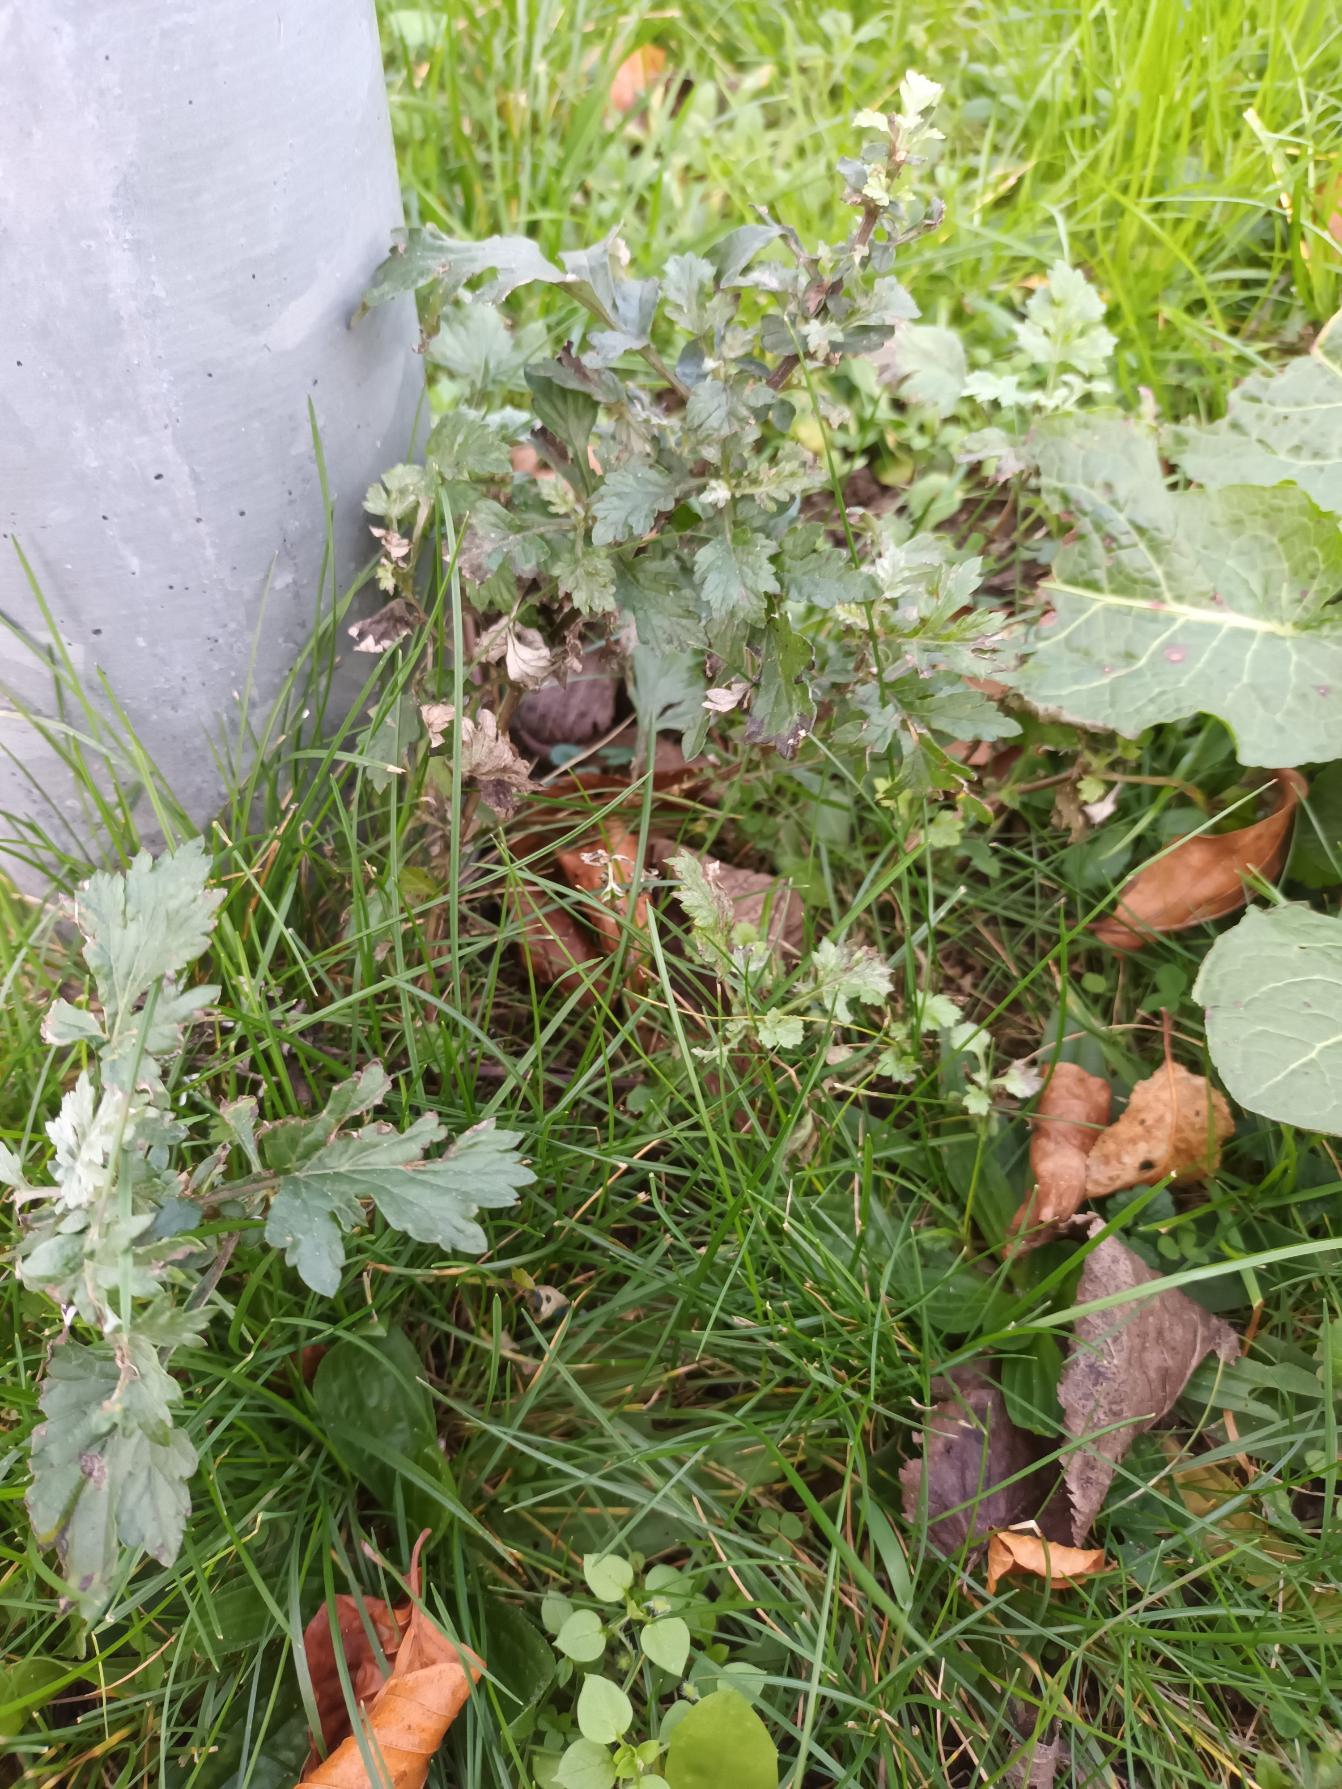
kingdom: Plantae
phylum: Tracheophyta
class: Magnoliopsida
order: Asterales
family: Asteraceae
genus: Artemisia
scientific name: Artemisia vulgaris
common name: Grå-bynke
